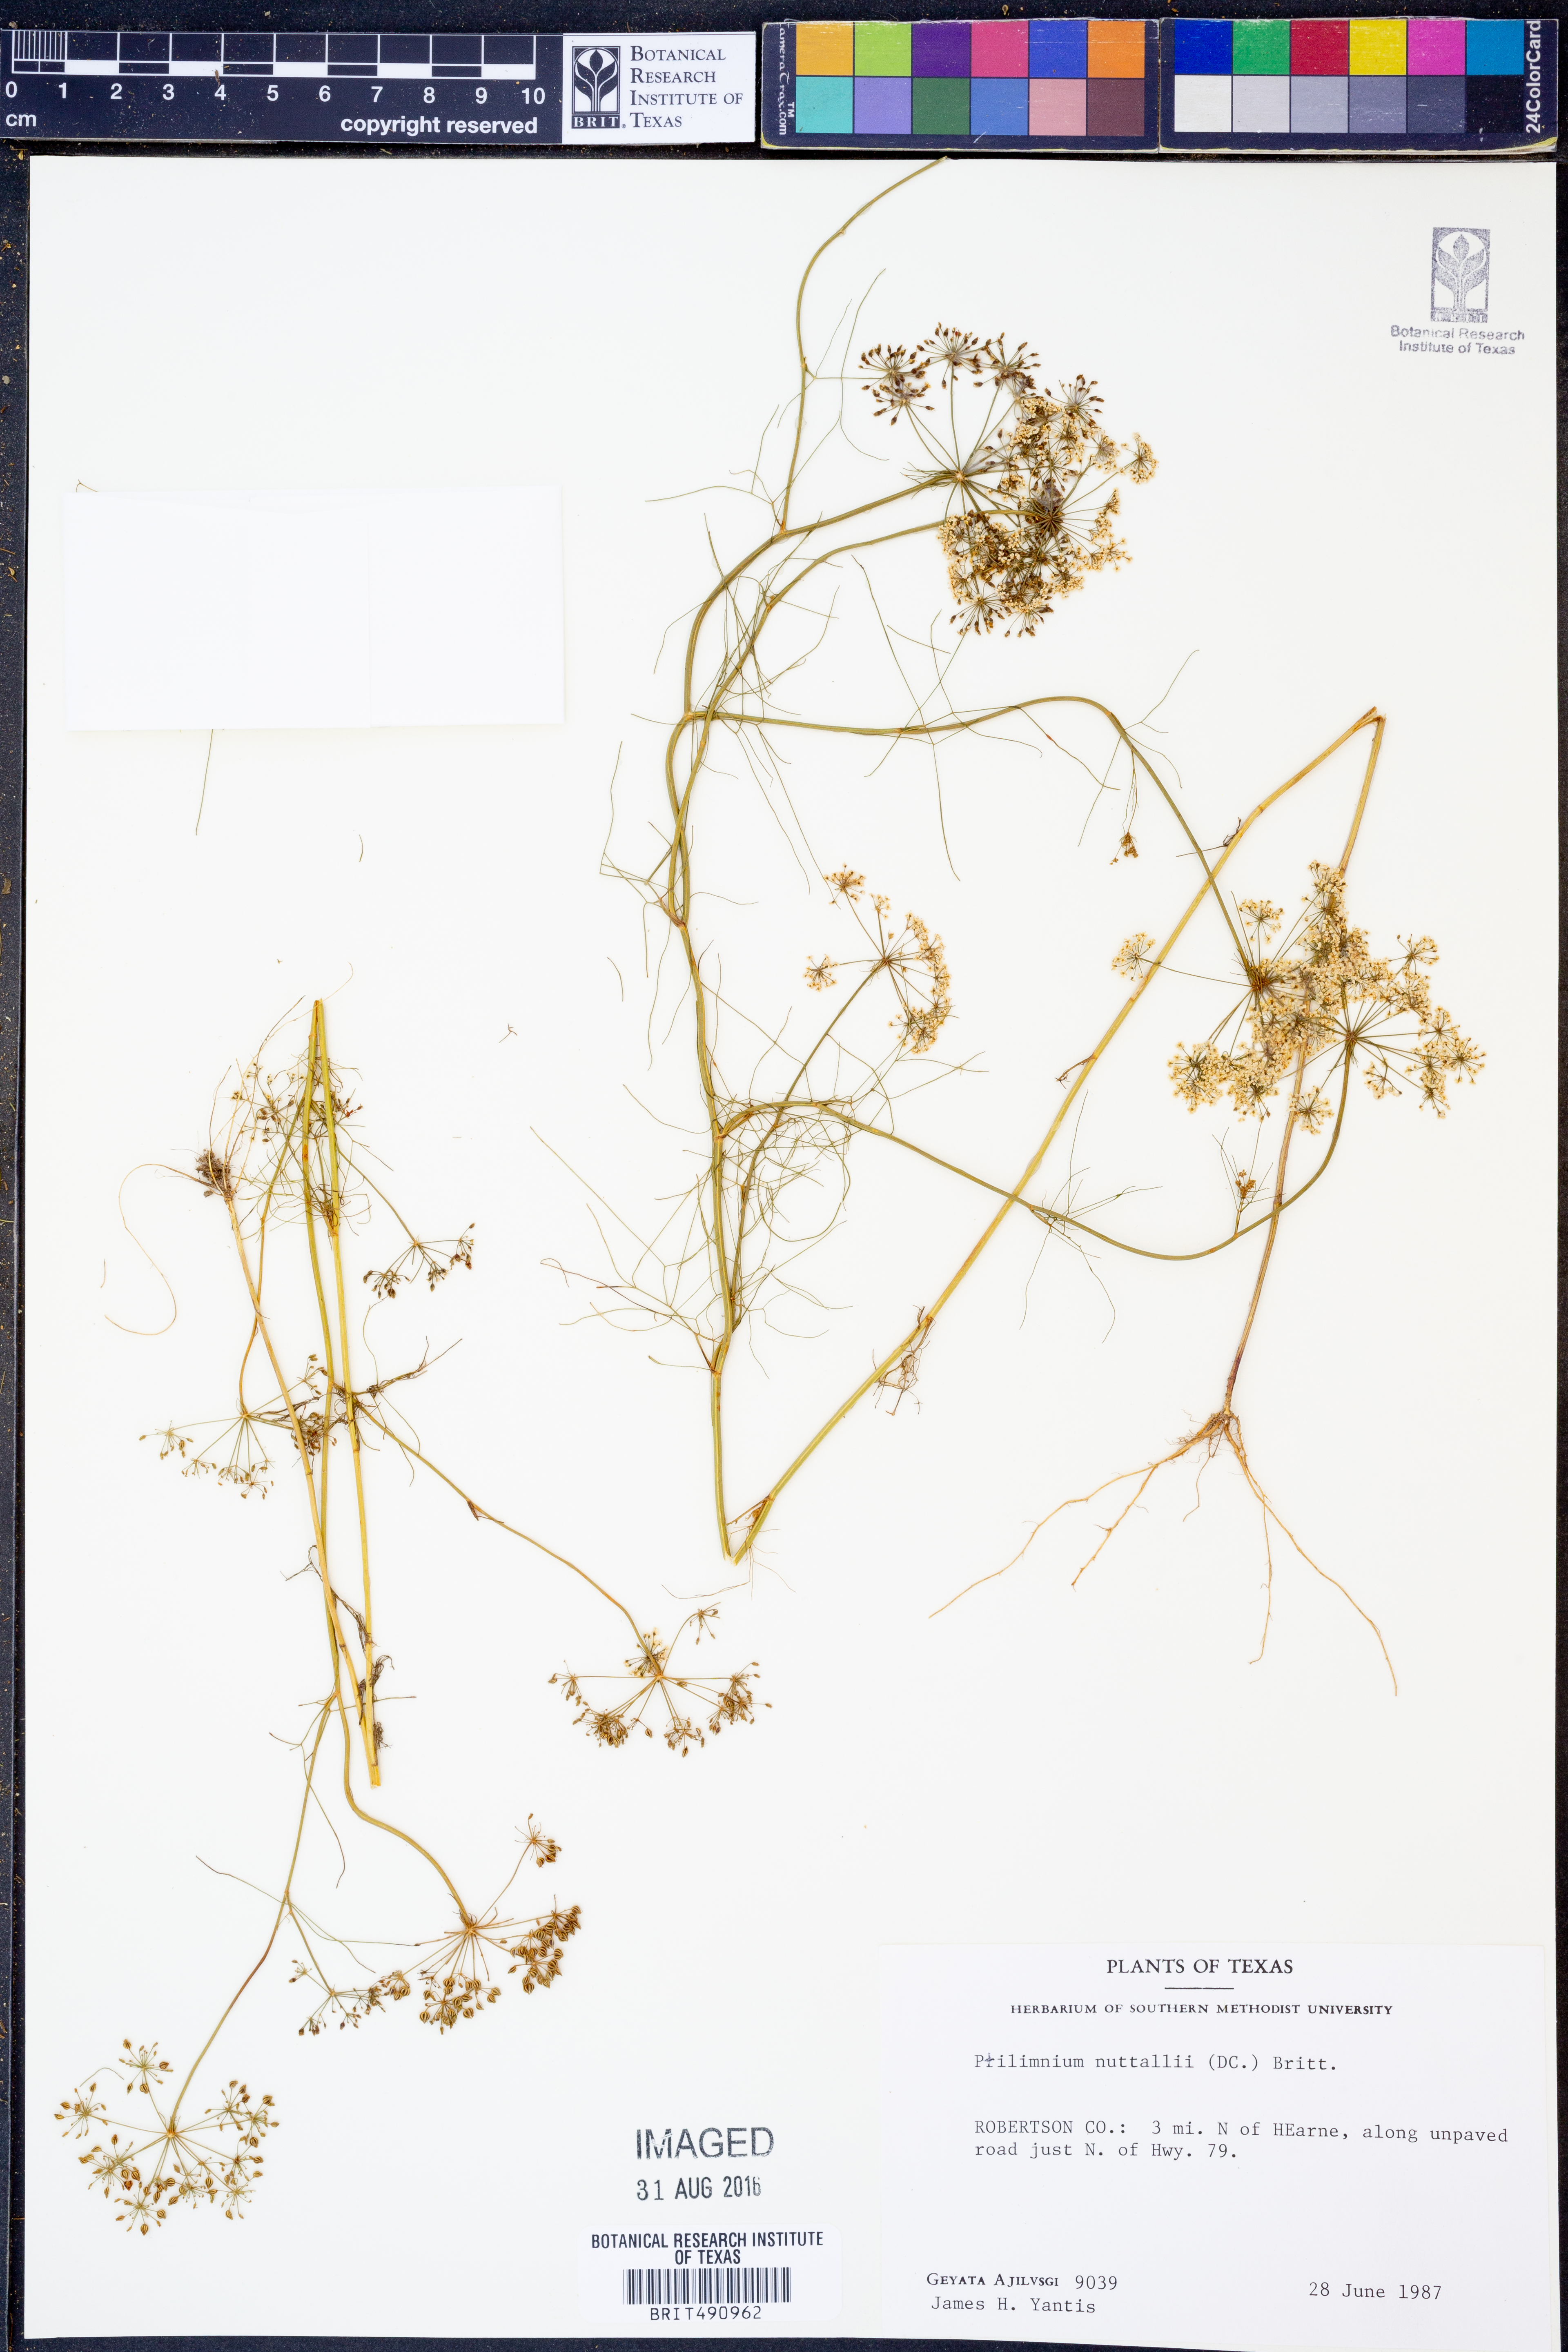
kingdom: Plantae
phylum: Tracheophyta
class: Magnoliopsida
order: Apiales
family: Apiaceae
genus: Ptilimnium
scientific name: Ptilimnium nuttallii
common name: Ozark bishop's-weed
